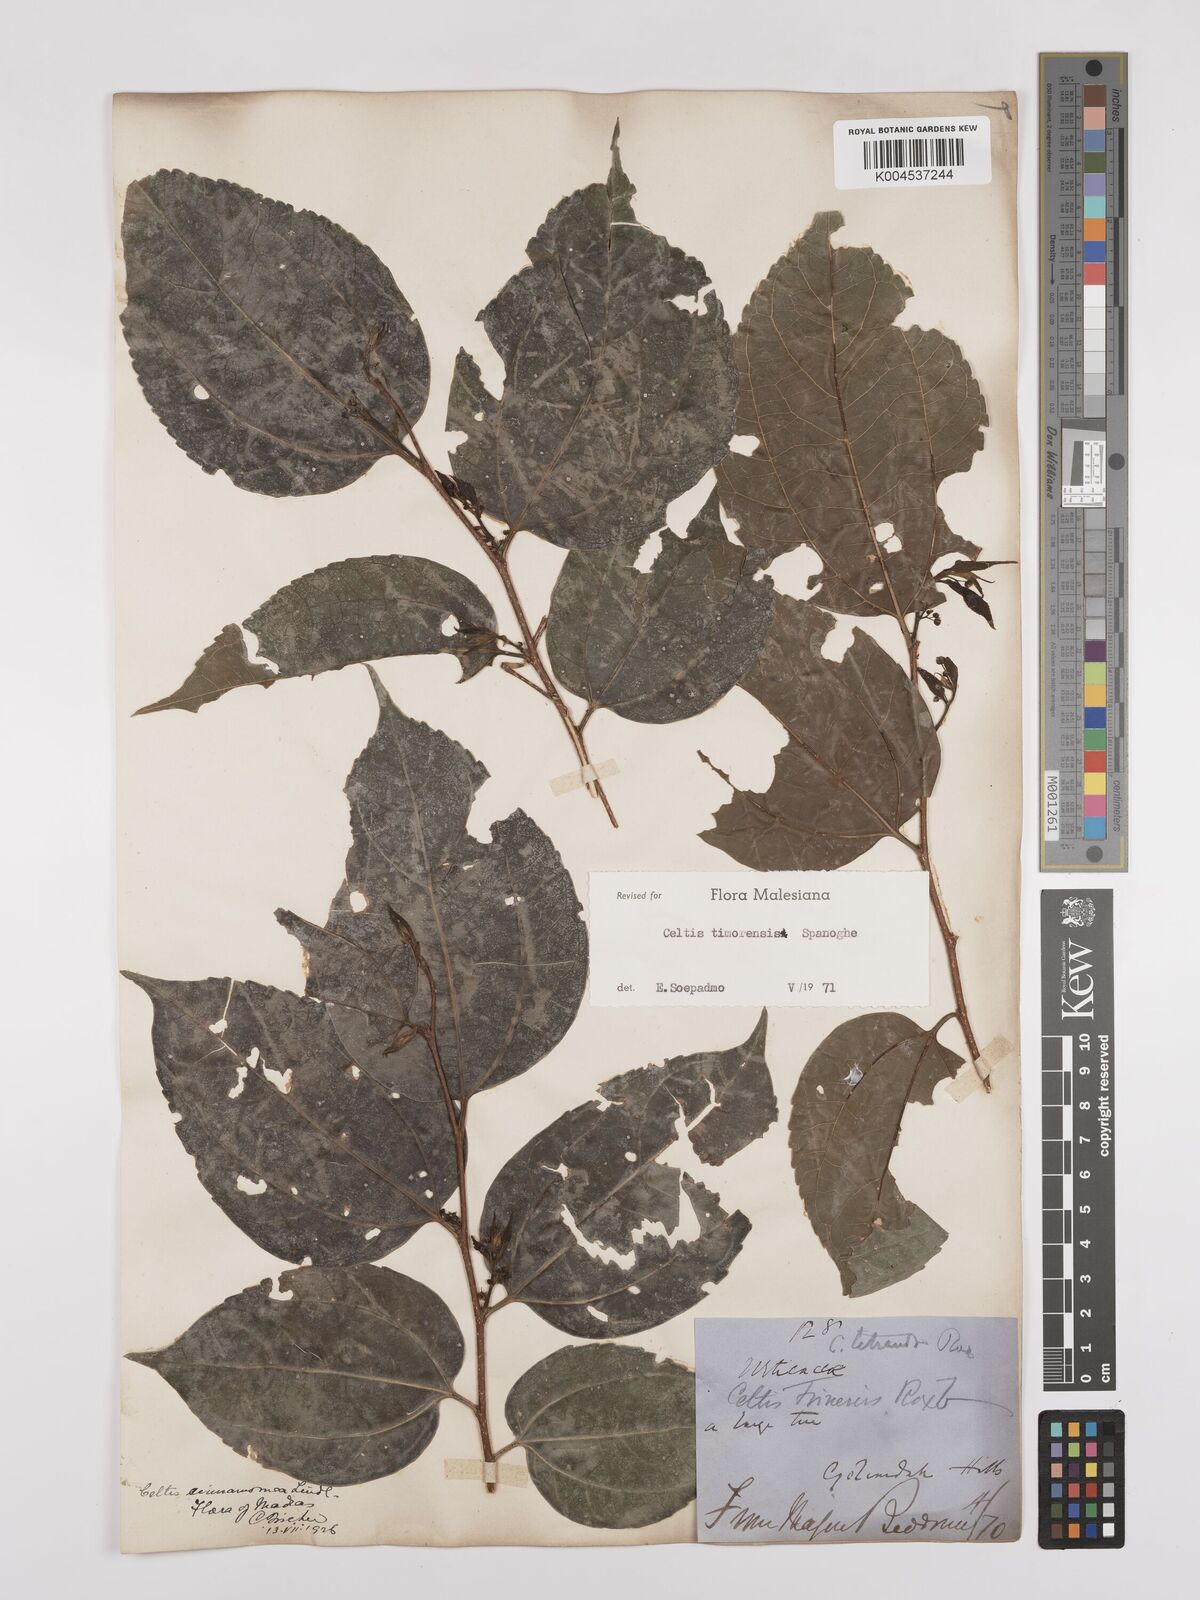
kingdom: Plantae
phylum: Tracheophyta
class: Magnoliopsida
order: Rosales
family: Cannabaceae
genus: Celtis
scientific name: Celtis timorensis
